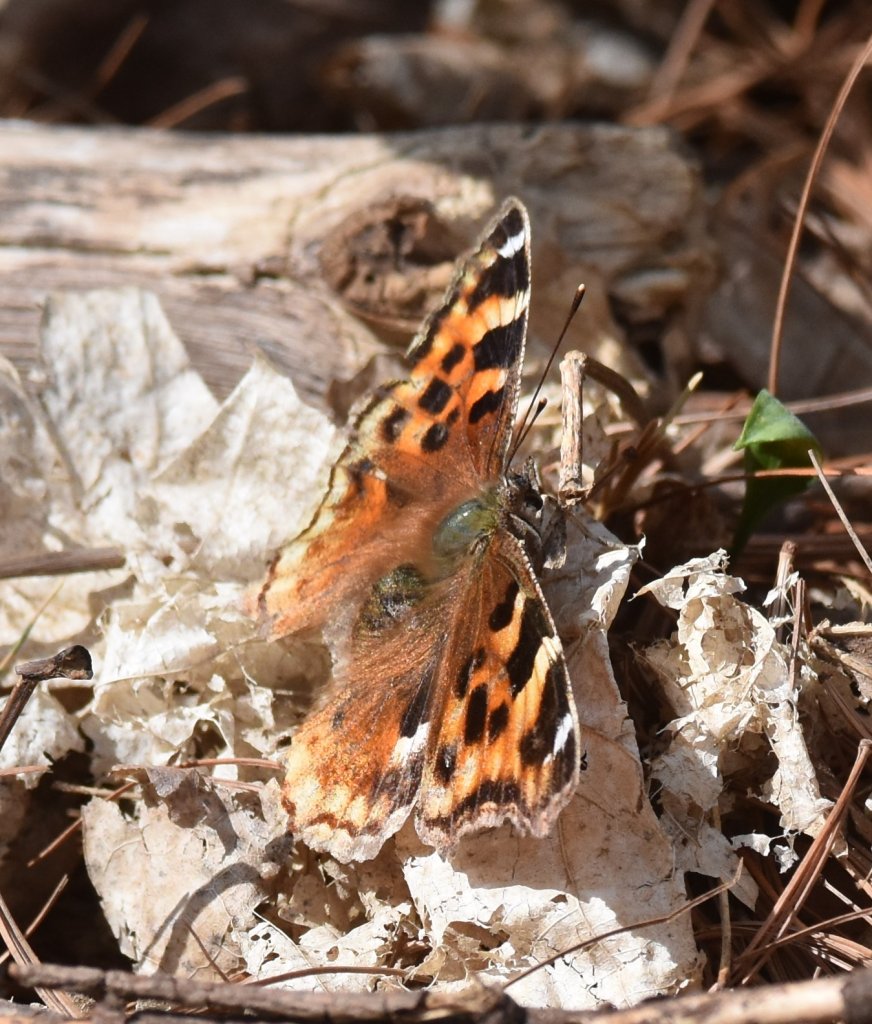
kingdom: Animalia
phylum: Arthropoda
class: Insecta
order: Lepidoptera
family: Nymphalidae
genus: Polygonia
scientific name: Polygonia vaualbum
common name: Compton Tortoiseshell
